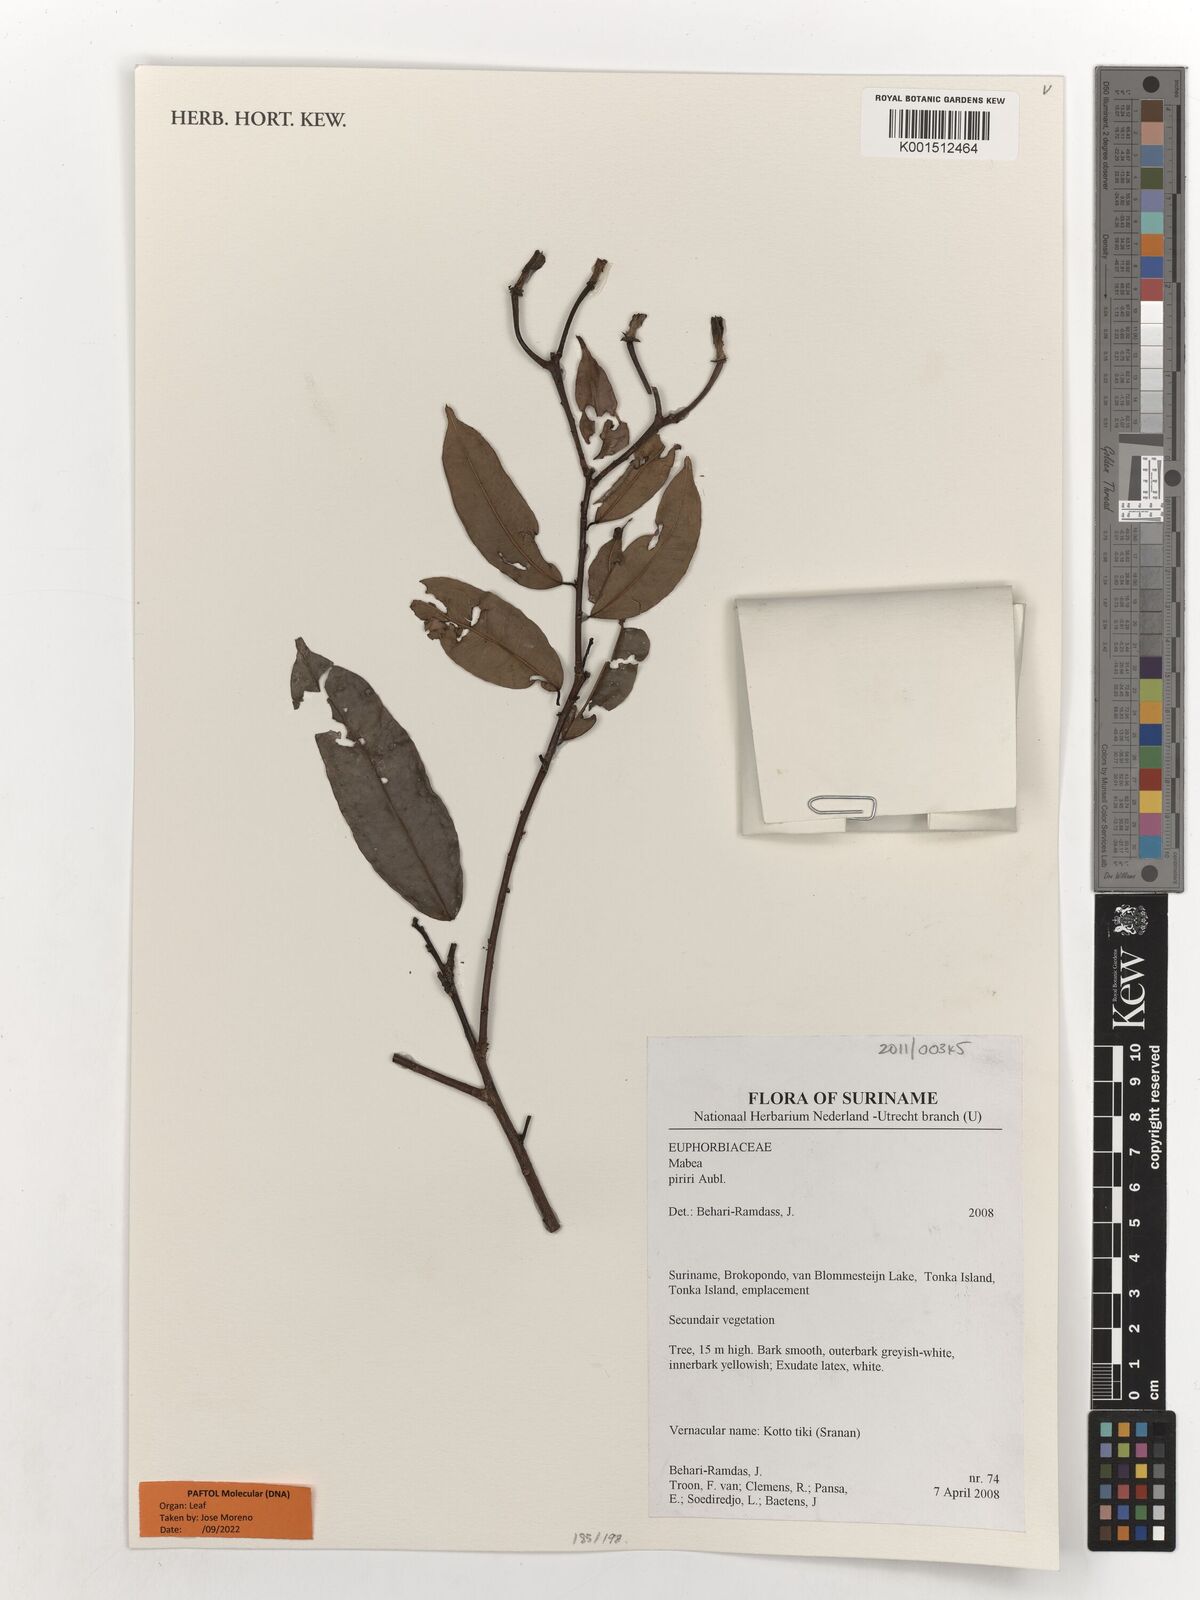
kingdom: Plantae
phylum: Tracheophyta
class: Magnoliopsida
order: Malpighiales
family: Euphorbiaceae
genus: Mabea
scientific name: Mabea piriri
